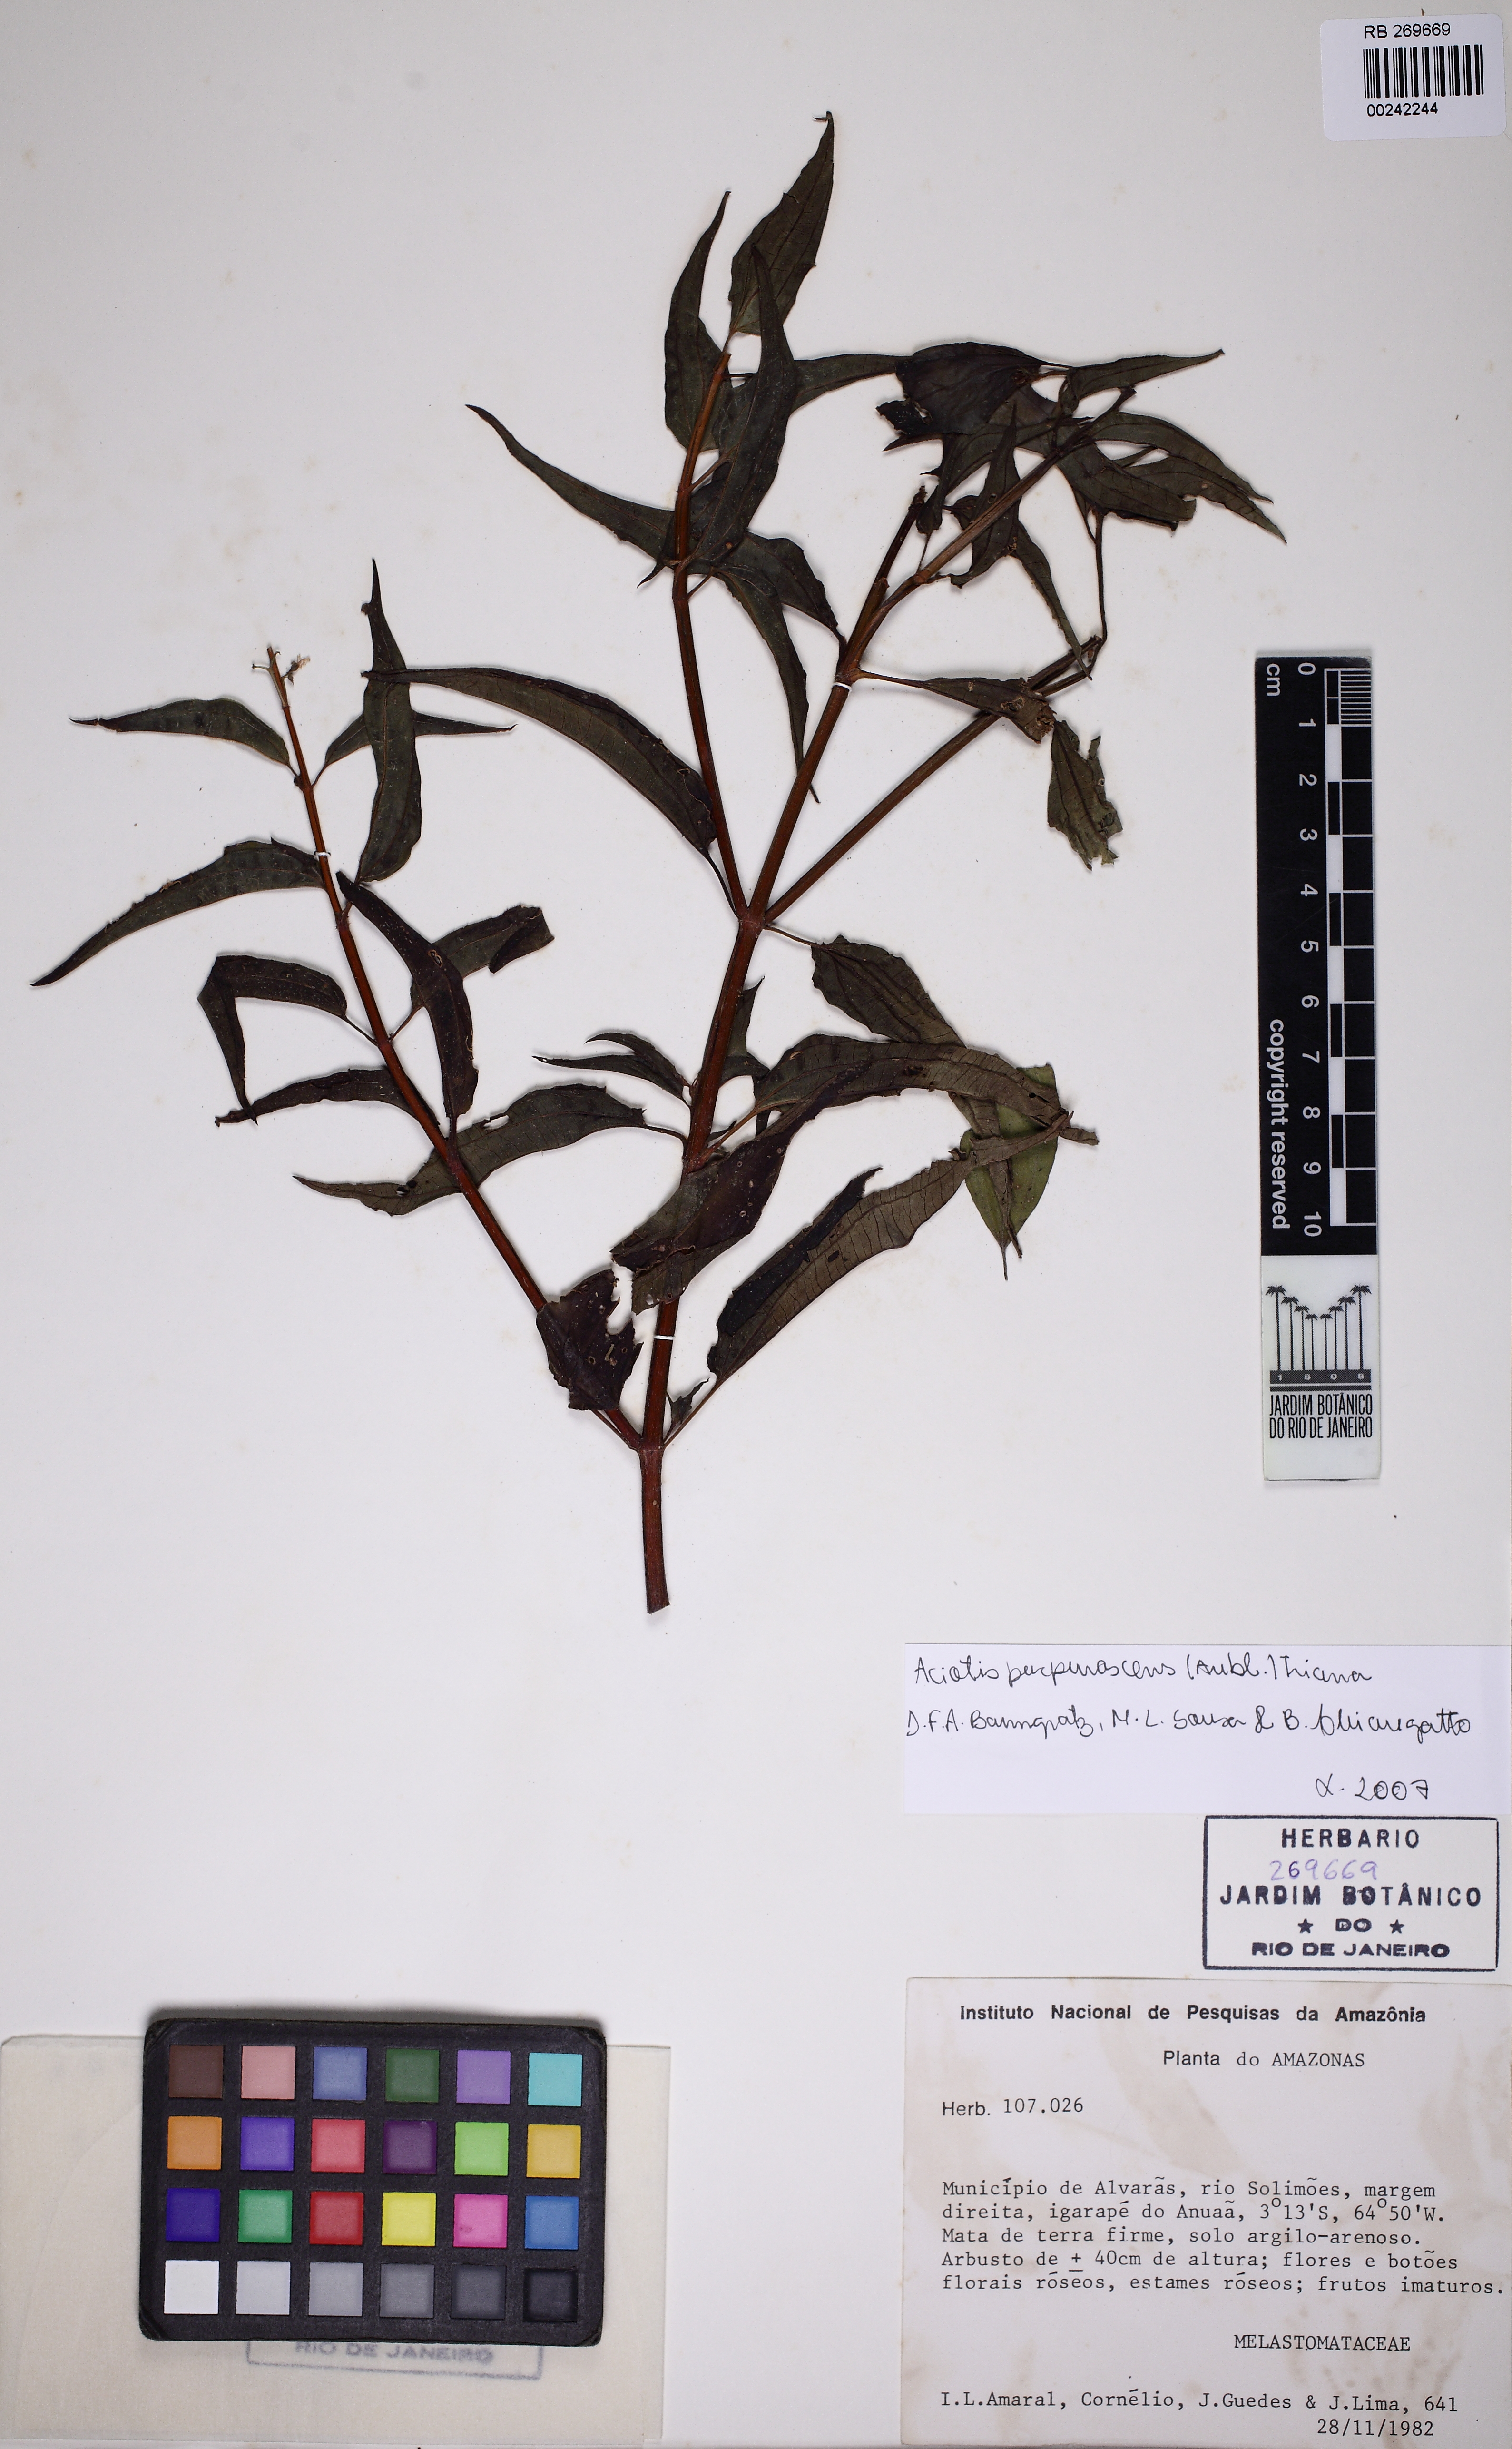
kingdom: Plantae
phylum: Tracheophyta
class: Magnoliopsida
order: Myrtales
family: Melastomataceae
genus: Aciotis
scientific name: Aciotis purpurascens
